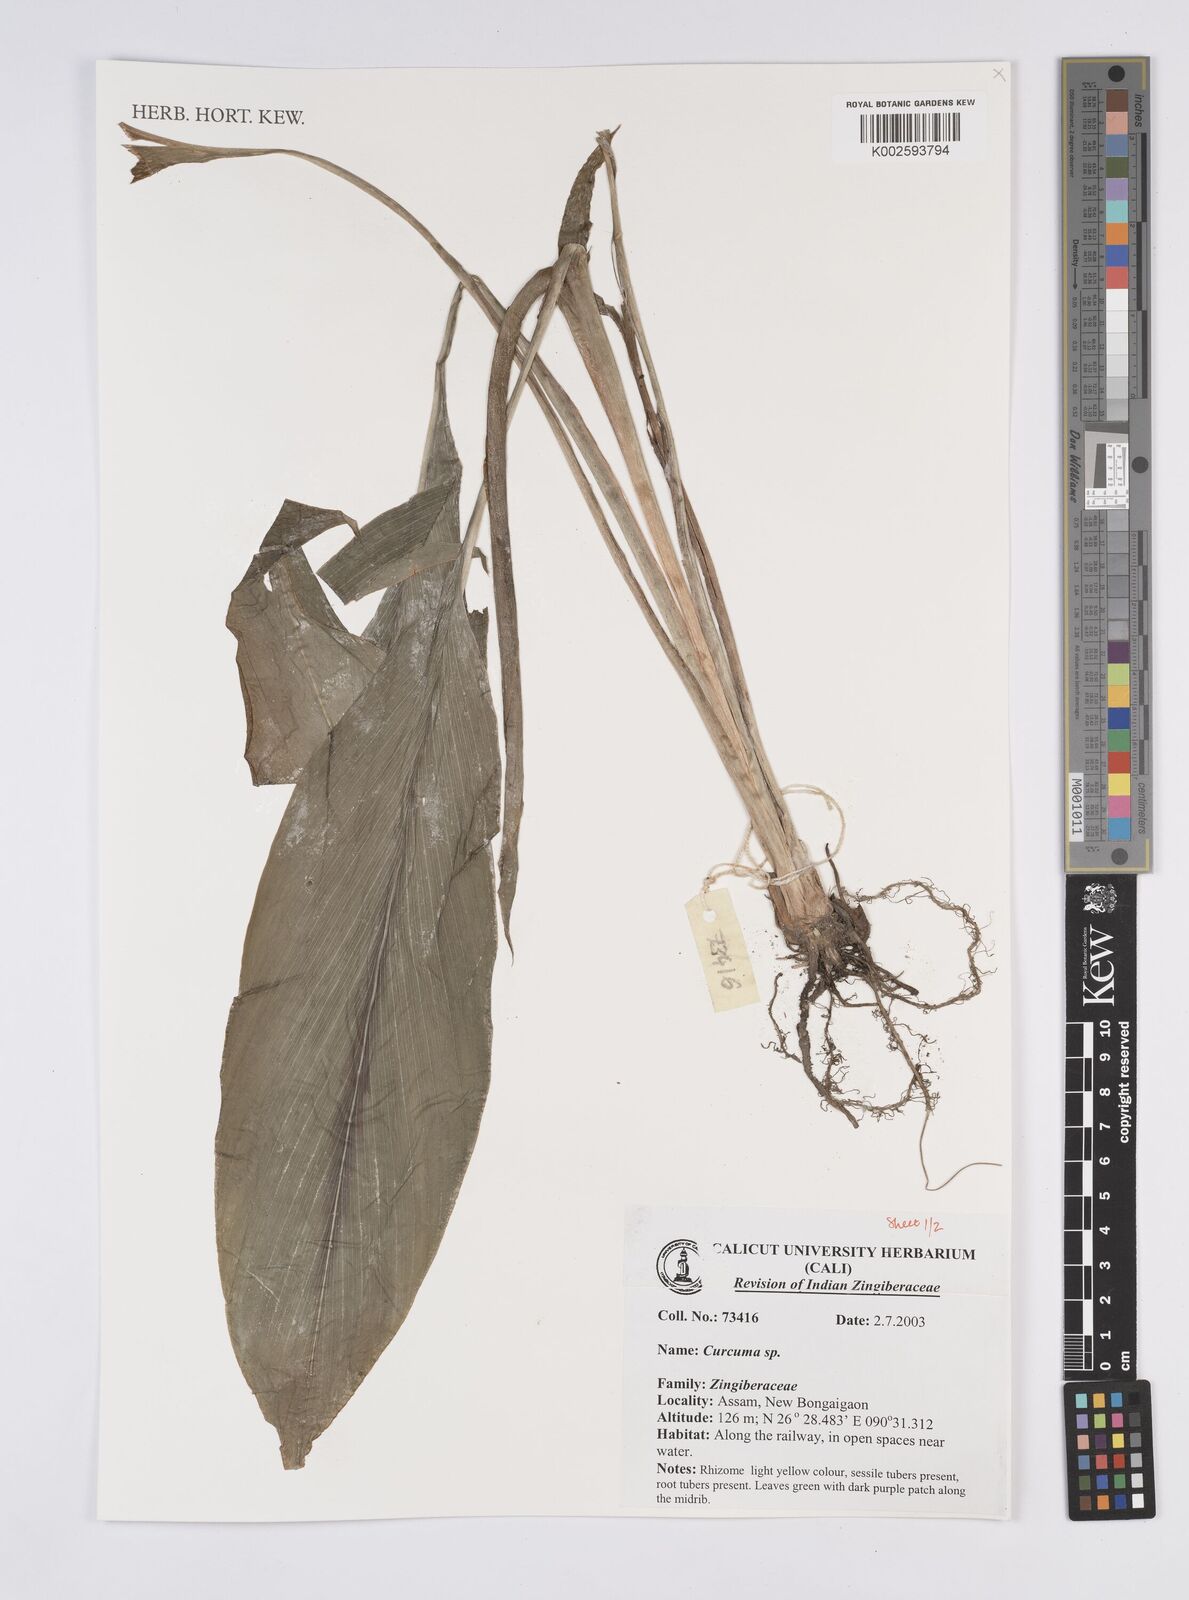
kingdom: Plantae
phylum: Tracheophyta
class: Liliopsida
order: Zingiberales
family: Zingiberaceae
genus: Curcuma
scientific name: Curcuma
